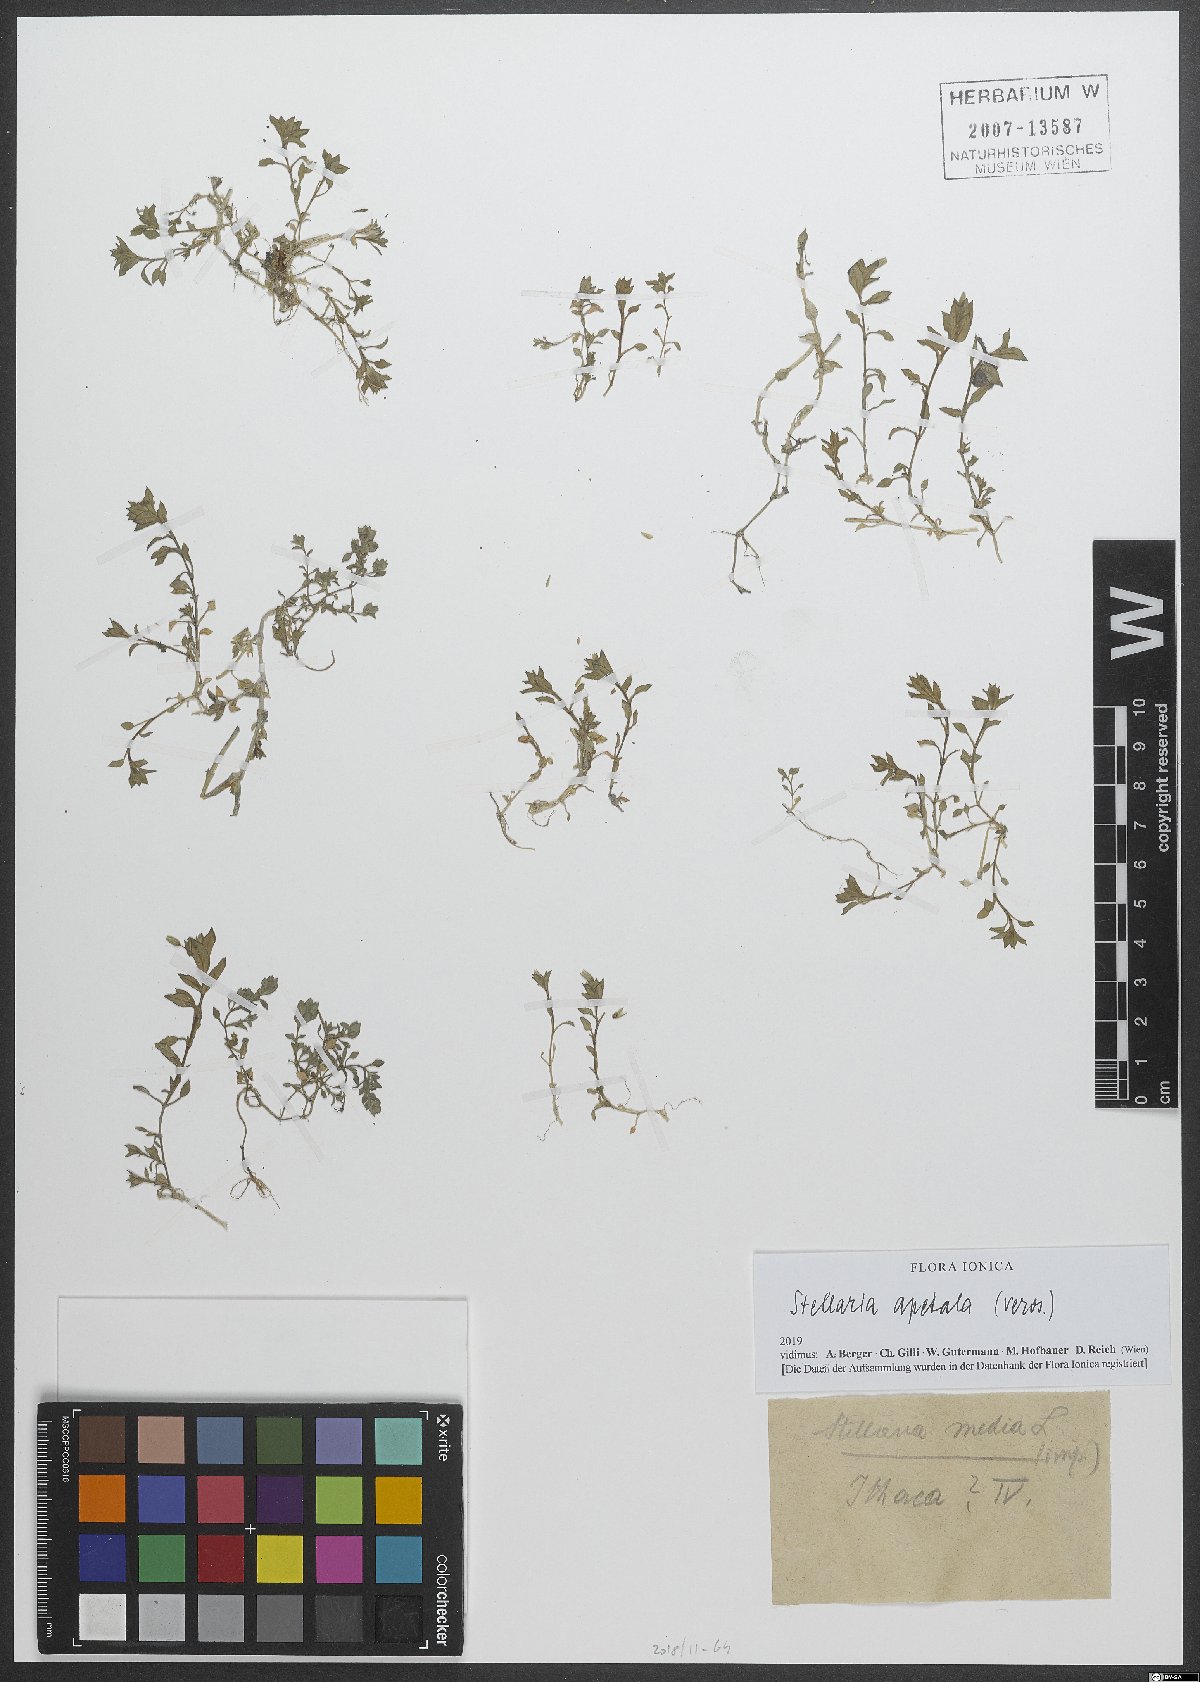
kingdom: Plantae
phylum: Tracheophyta
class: Magnoliopsida
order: Caryophyllales
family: Caryophyllaceae
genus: Stellaria
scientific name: Stellaria apetala
